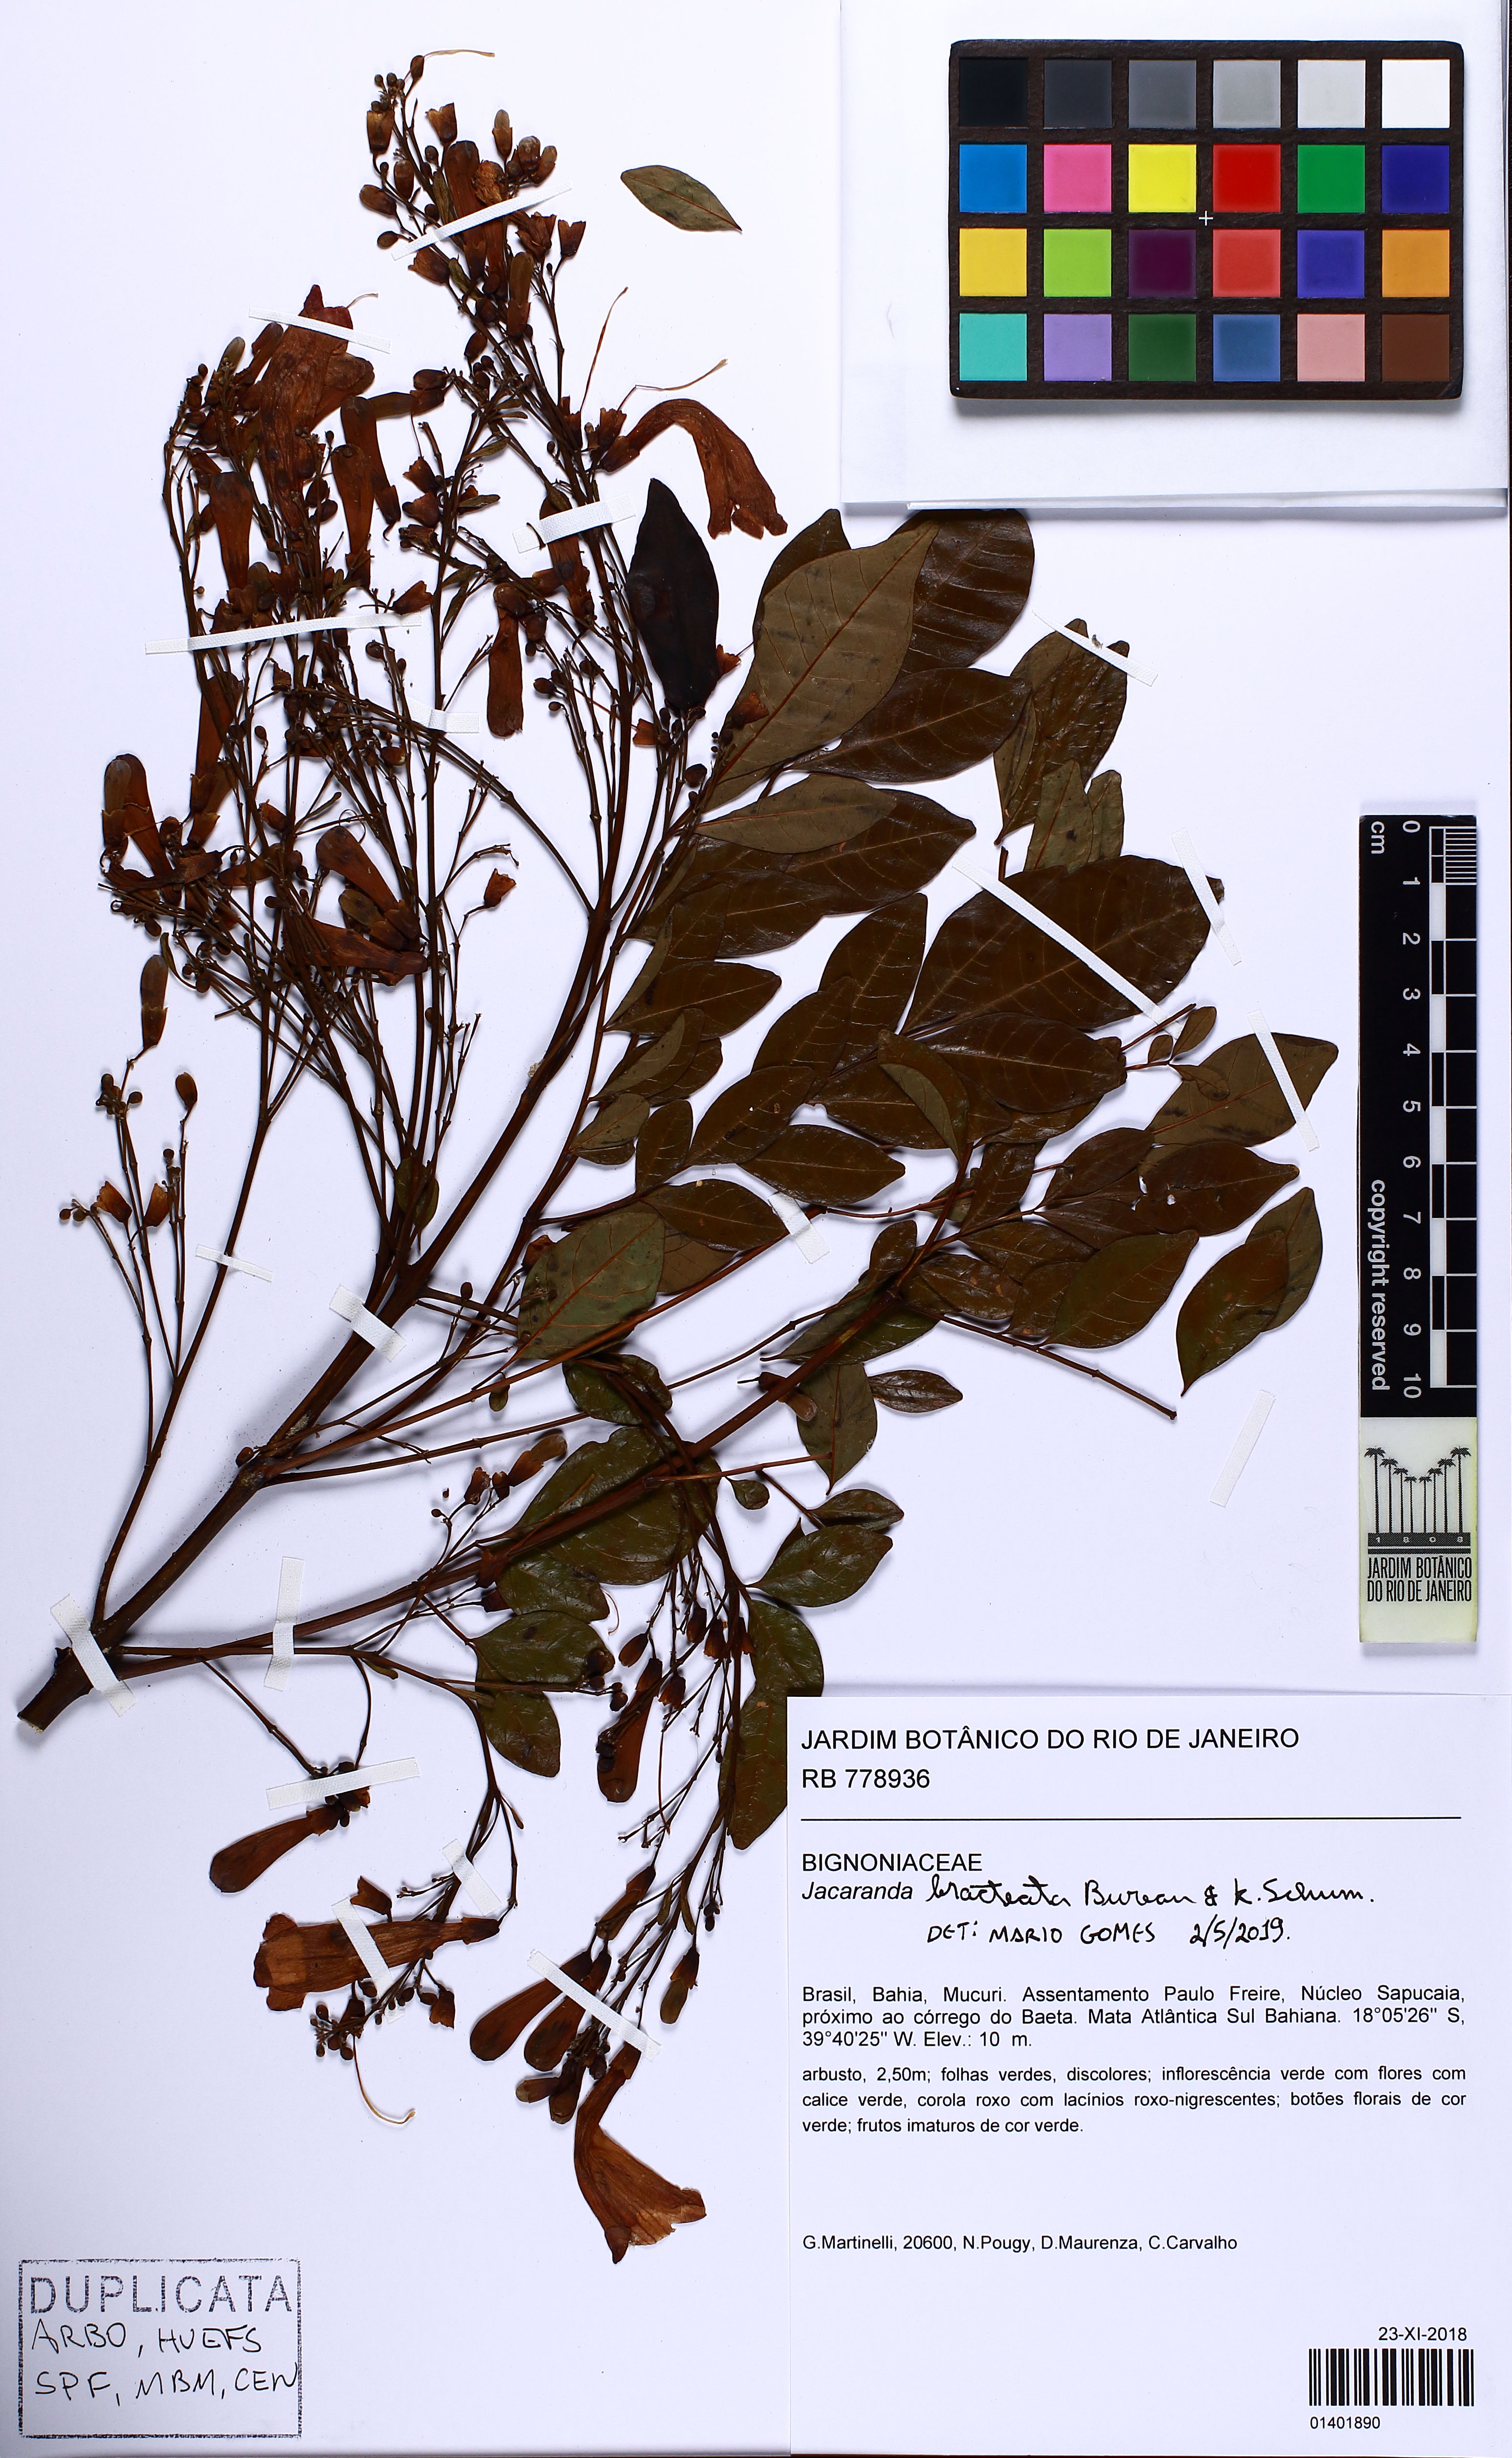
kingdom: Plantae
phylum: Tracheophyta
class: Magnoliopsida
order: Lamiales
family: Bignoniaceae
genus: Jacaranda
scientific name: Jacaranda bracteata
